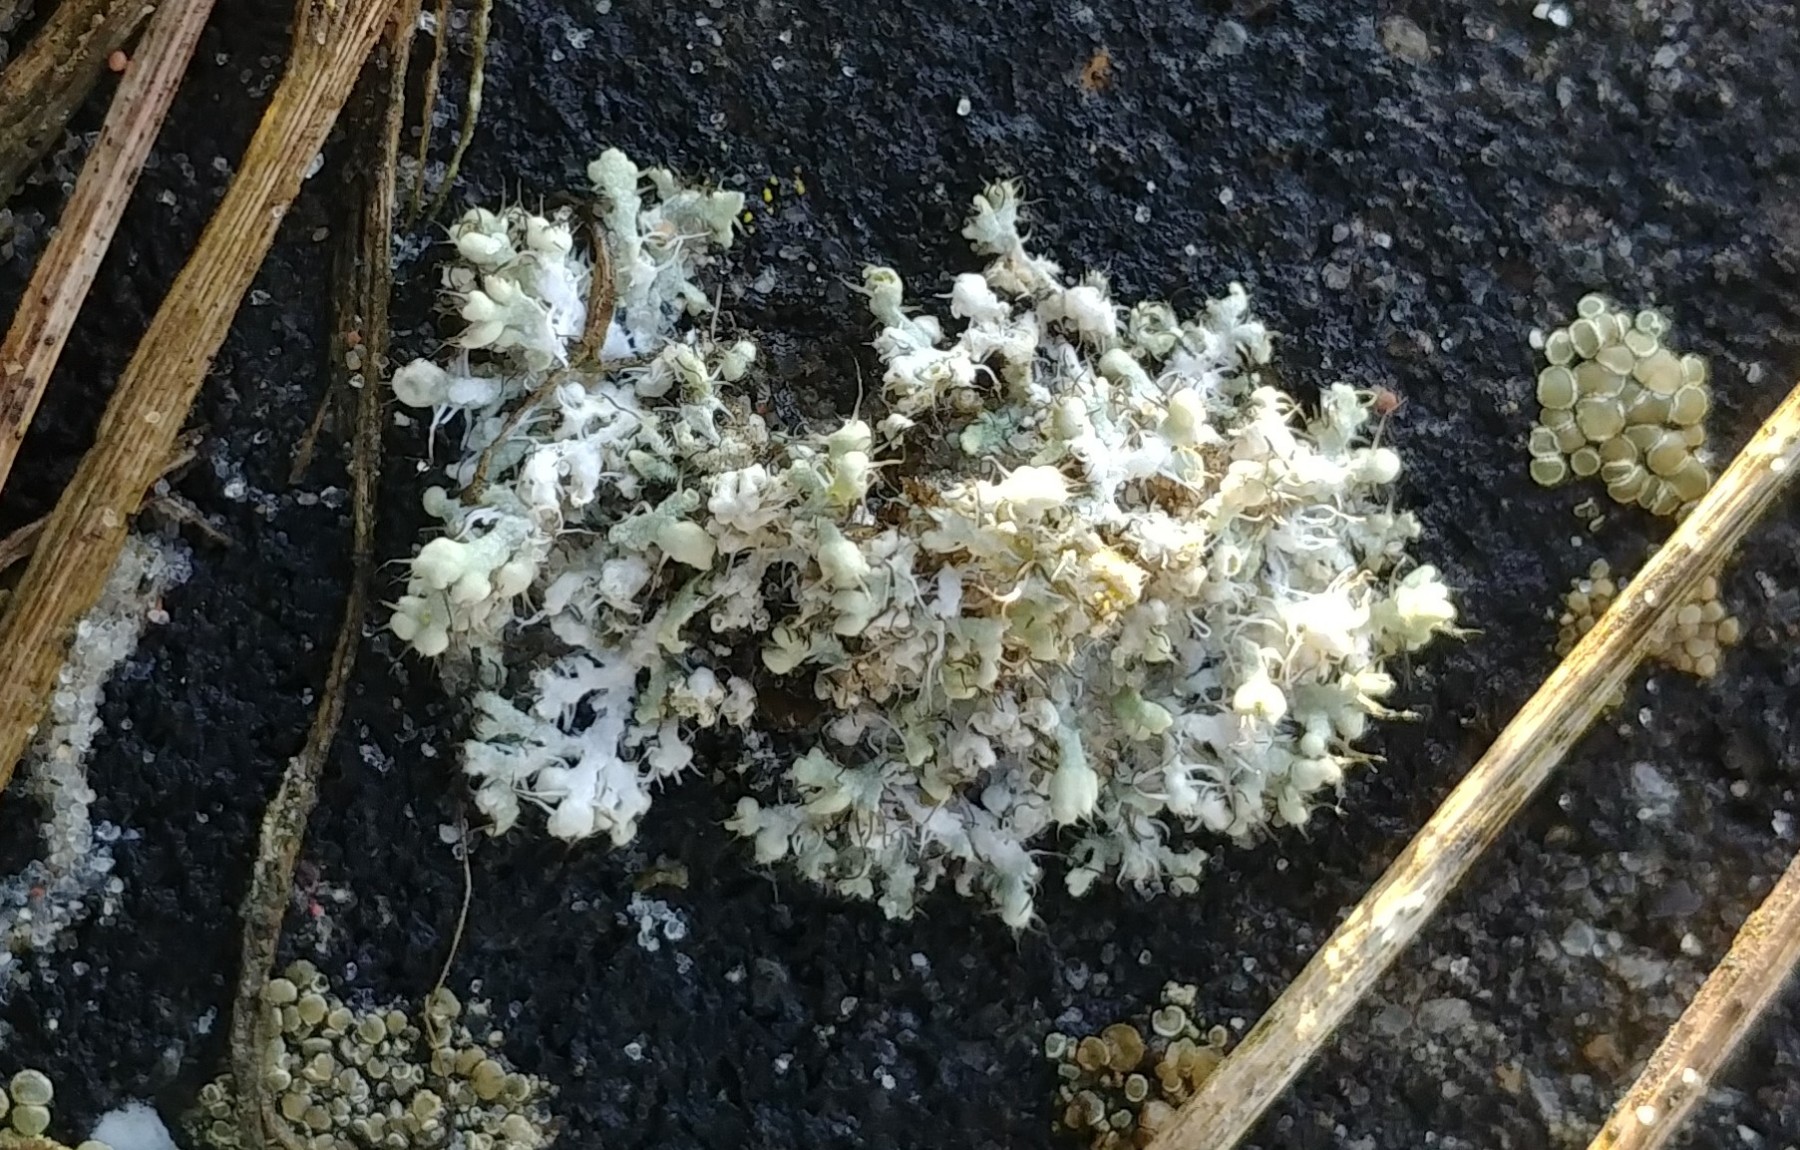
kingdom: Fungi
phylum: Ascomycota
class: Lecanoromycetes
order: Caliciales
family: Physciaceae
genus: Physcia
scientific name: Physcia adscendens
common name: hætte-rosetlav
